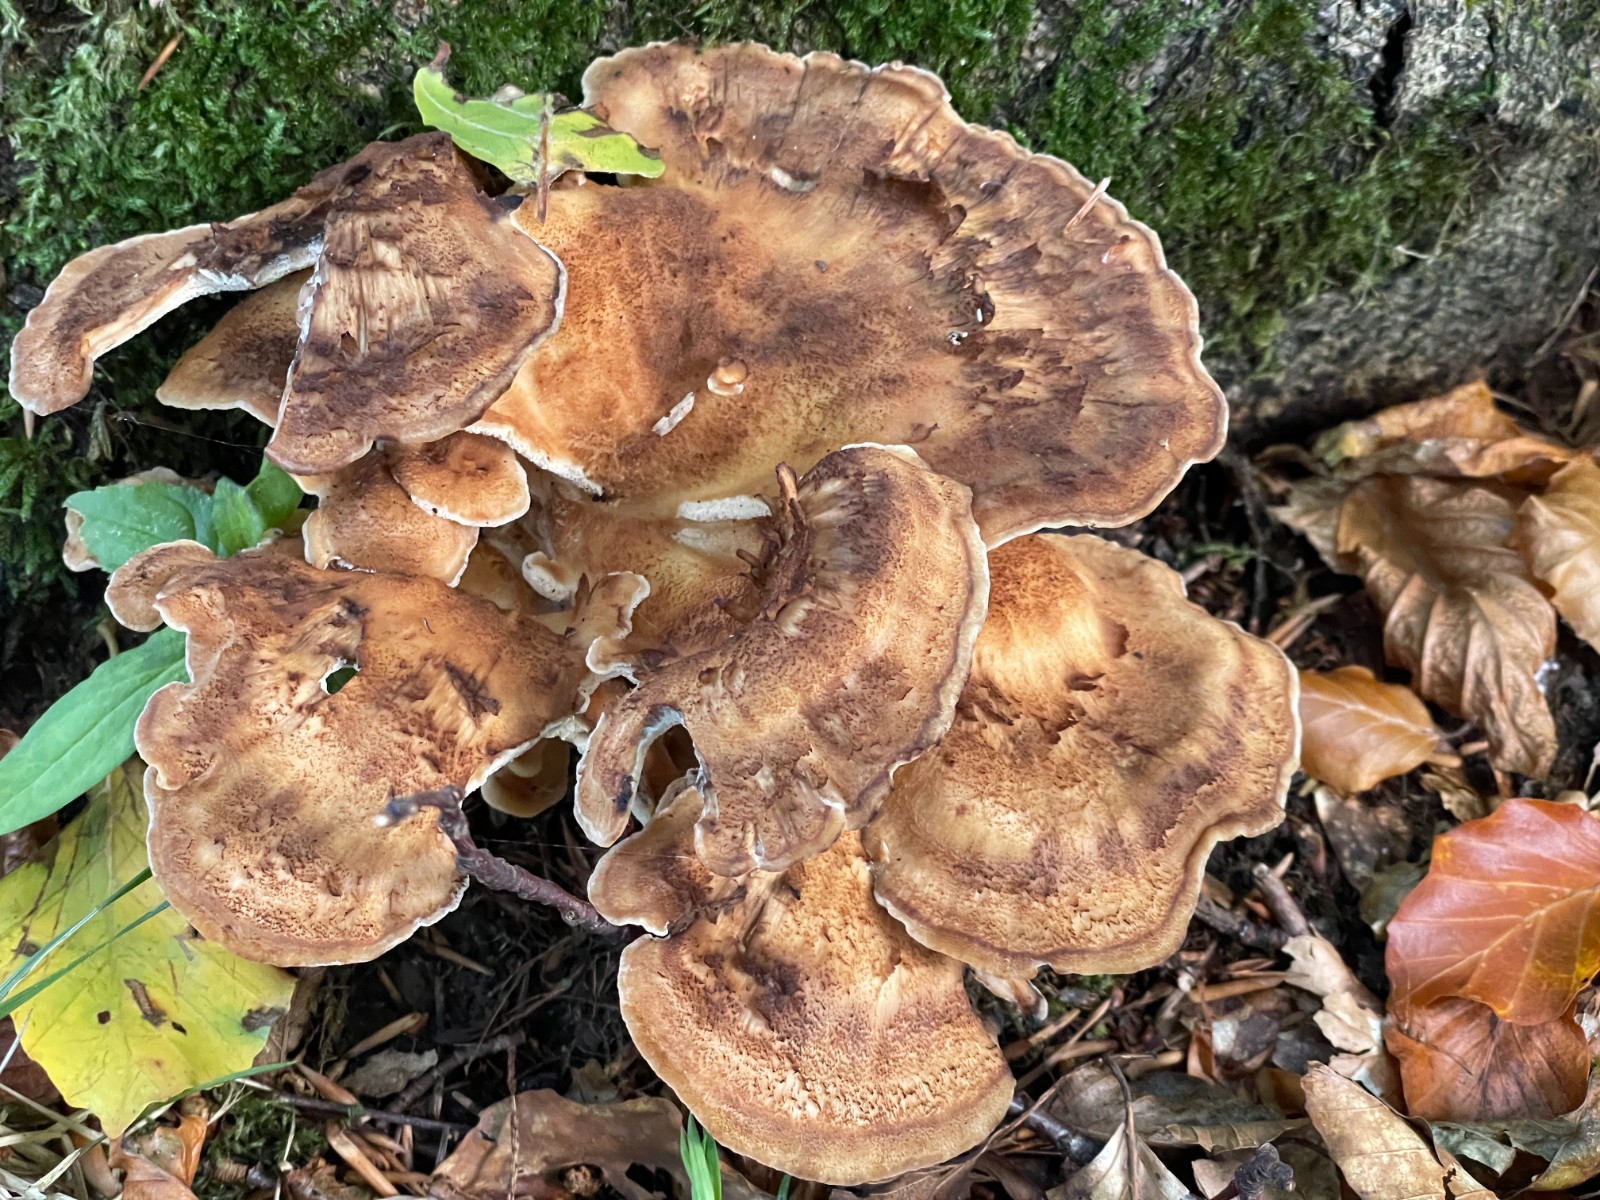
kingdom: Fungi
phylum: Basidiomycota
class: Agaricomycetes
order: Polyporales
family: Meripilaceae
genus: Meripilus
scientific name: Meripilus giganteus
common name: kæmpeporesvamp
